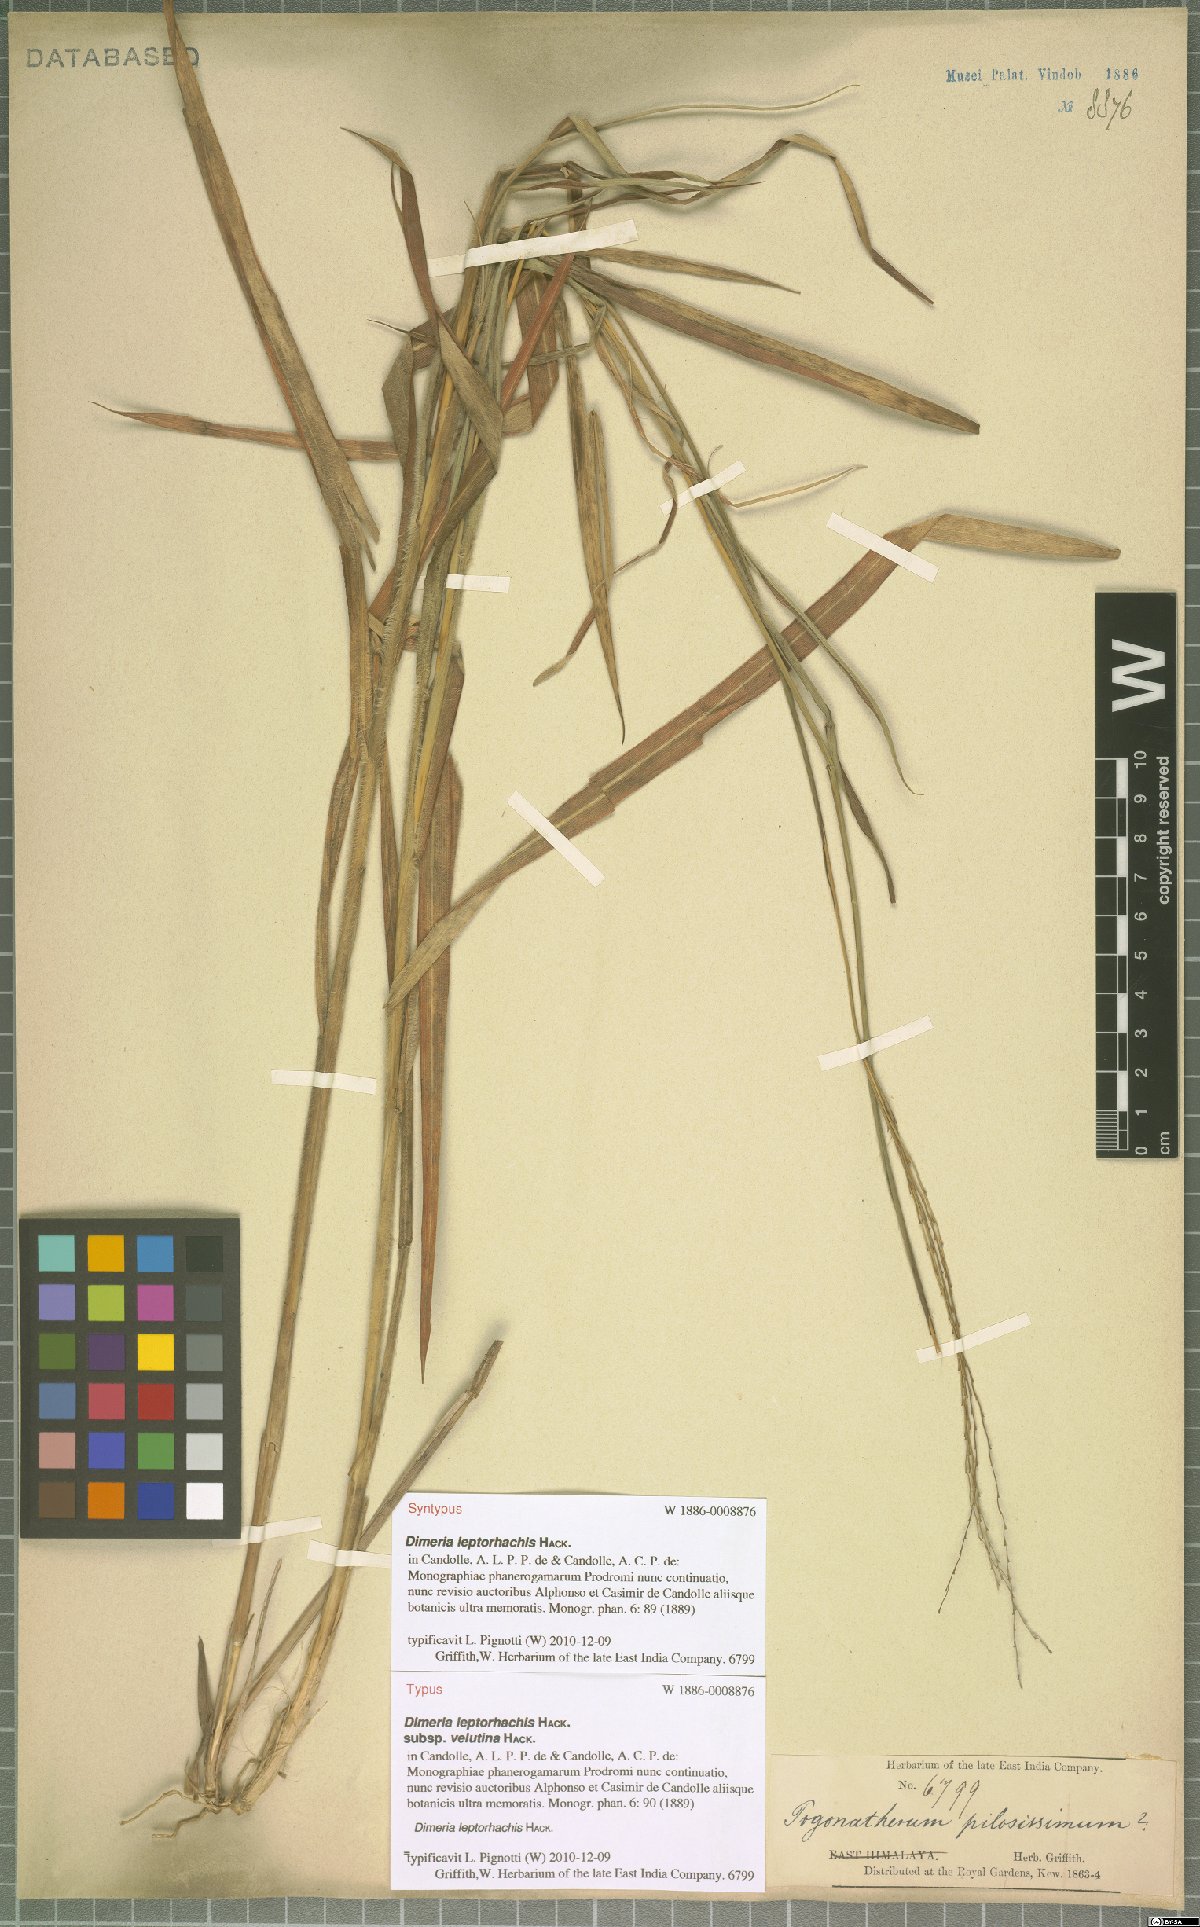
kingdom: Plantae
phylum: Tracheophyta
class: Liliopsida
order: Poales
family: Poaceae
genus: Dimeria
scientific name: Dimeria gracilis
